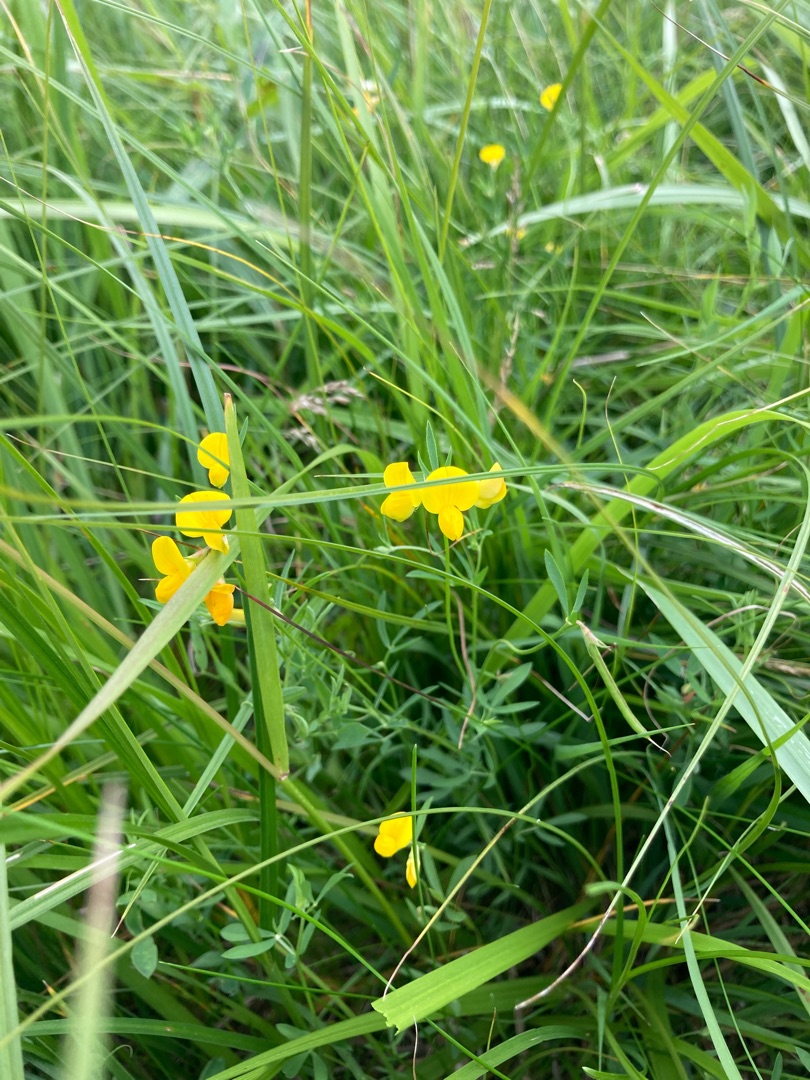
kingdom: Plantae
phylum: Tracheophyta
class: Magnoliopsida
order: Fabales
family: Fabaceae
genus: Lathyrus
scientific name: Lathyrus pratensis
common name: Gul fladbælg
